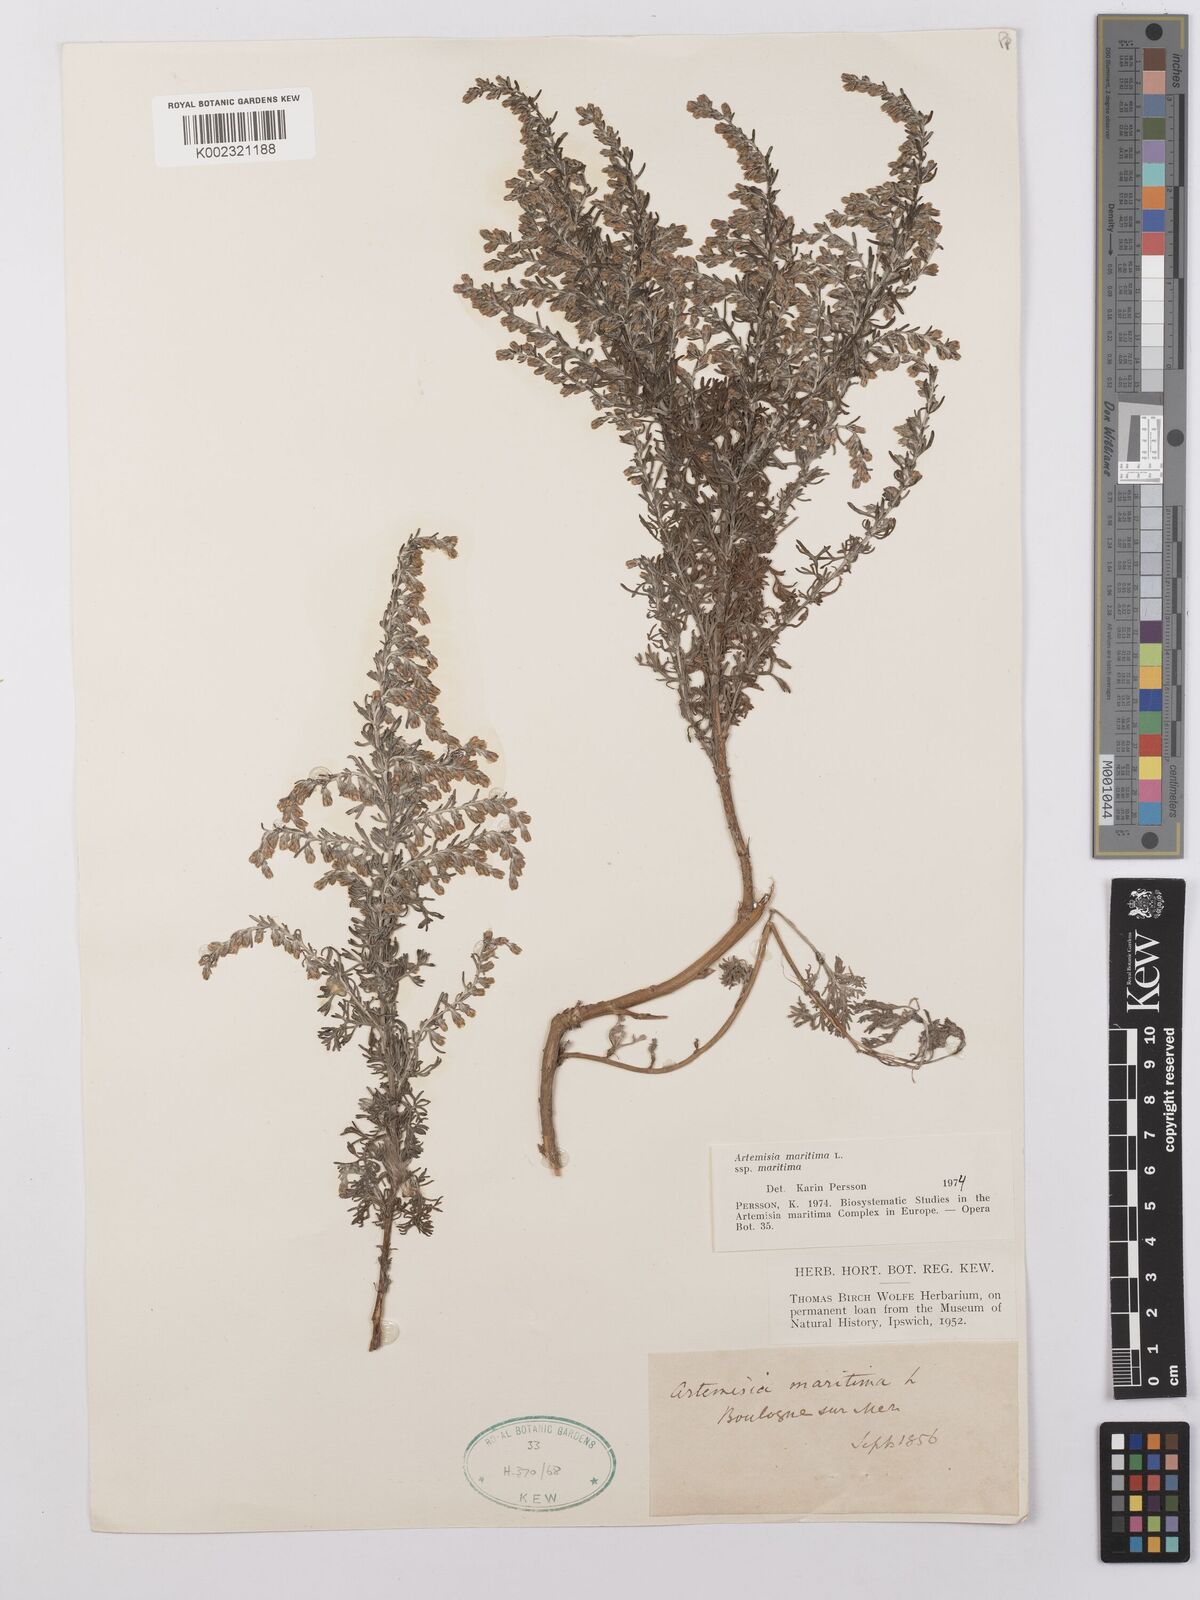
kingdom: Plantae
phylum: Tracheophyta
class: Magnoliopsida
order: Asterales
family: Asteraceae
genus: Artemisia
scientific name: Artemisia maritima
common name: Wormseed
